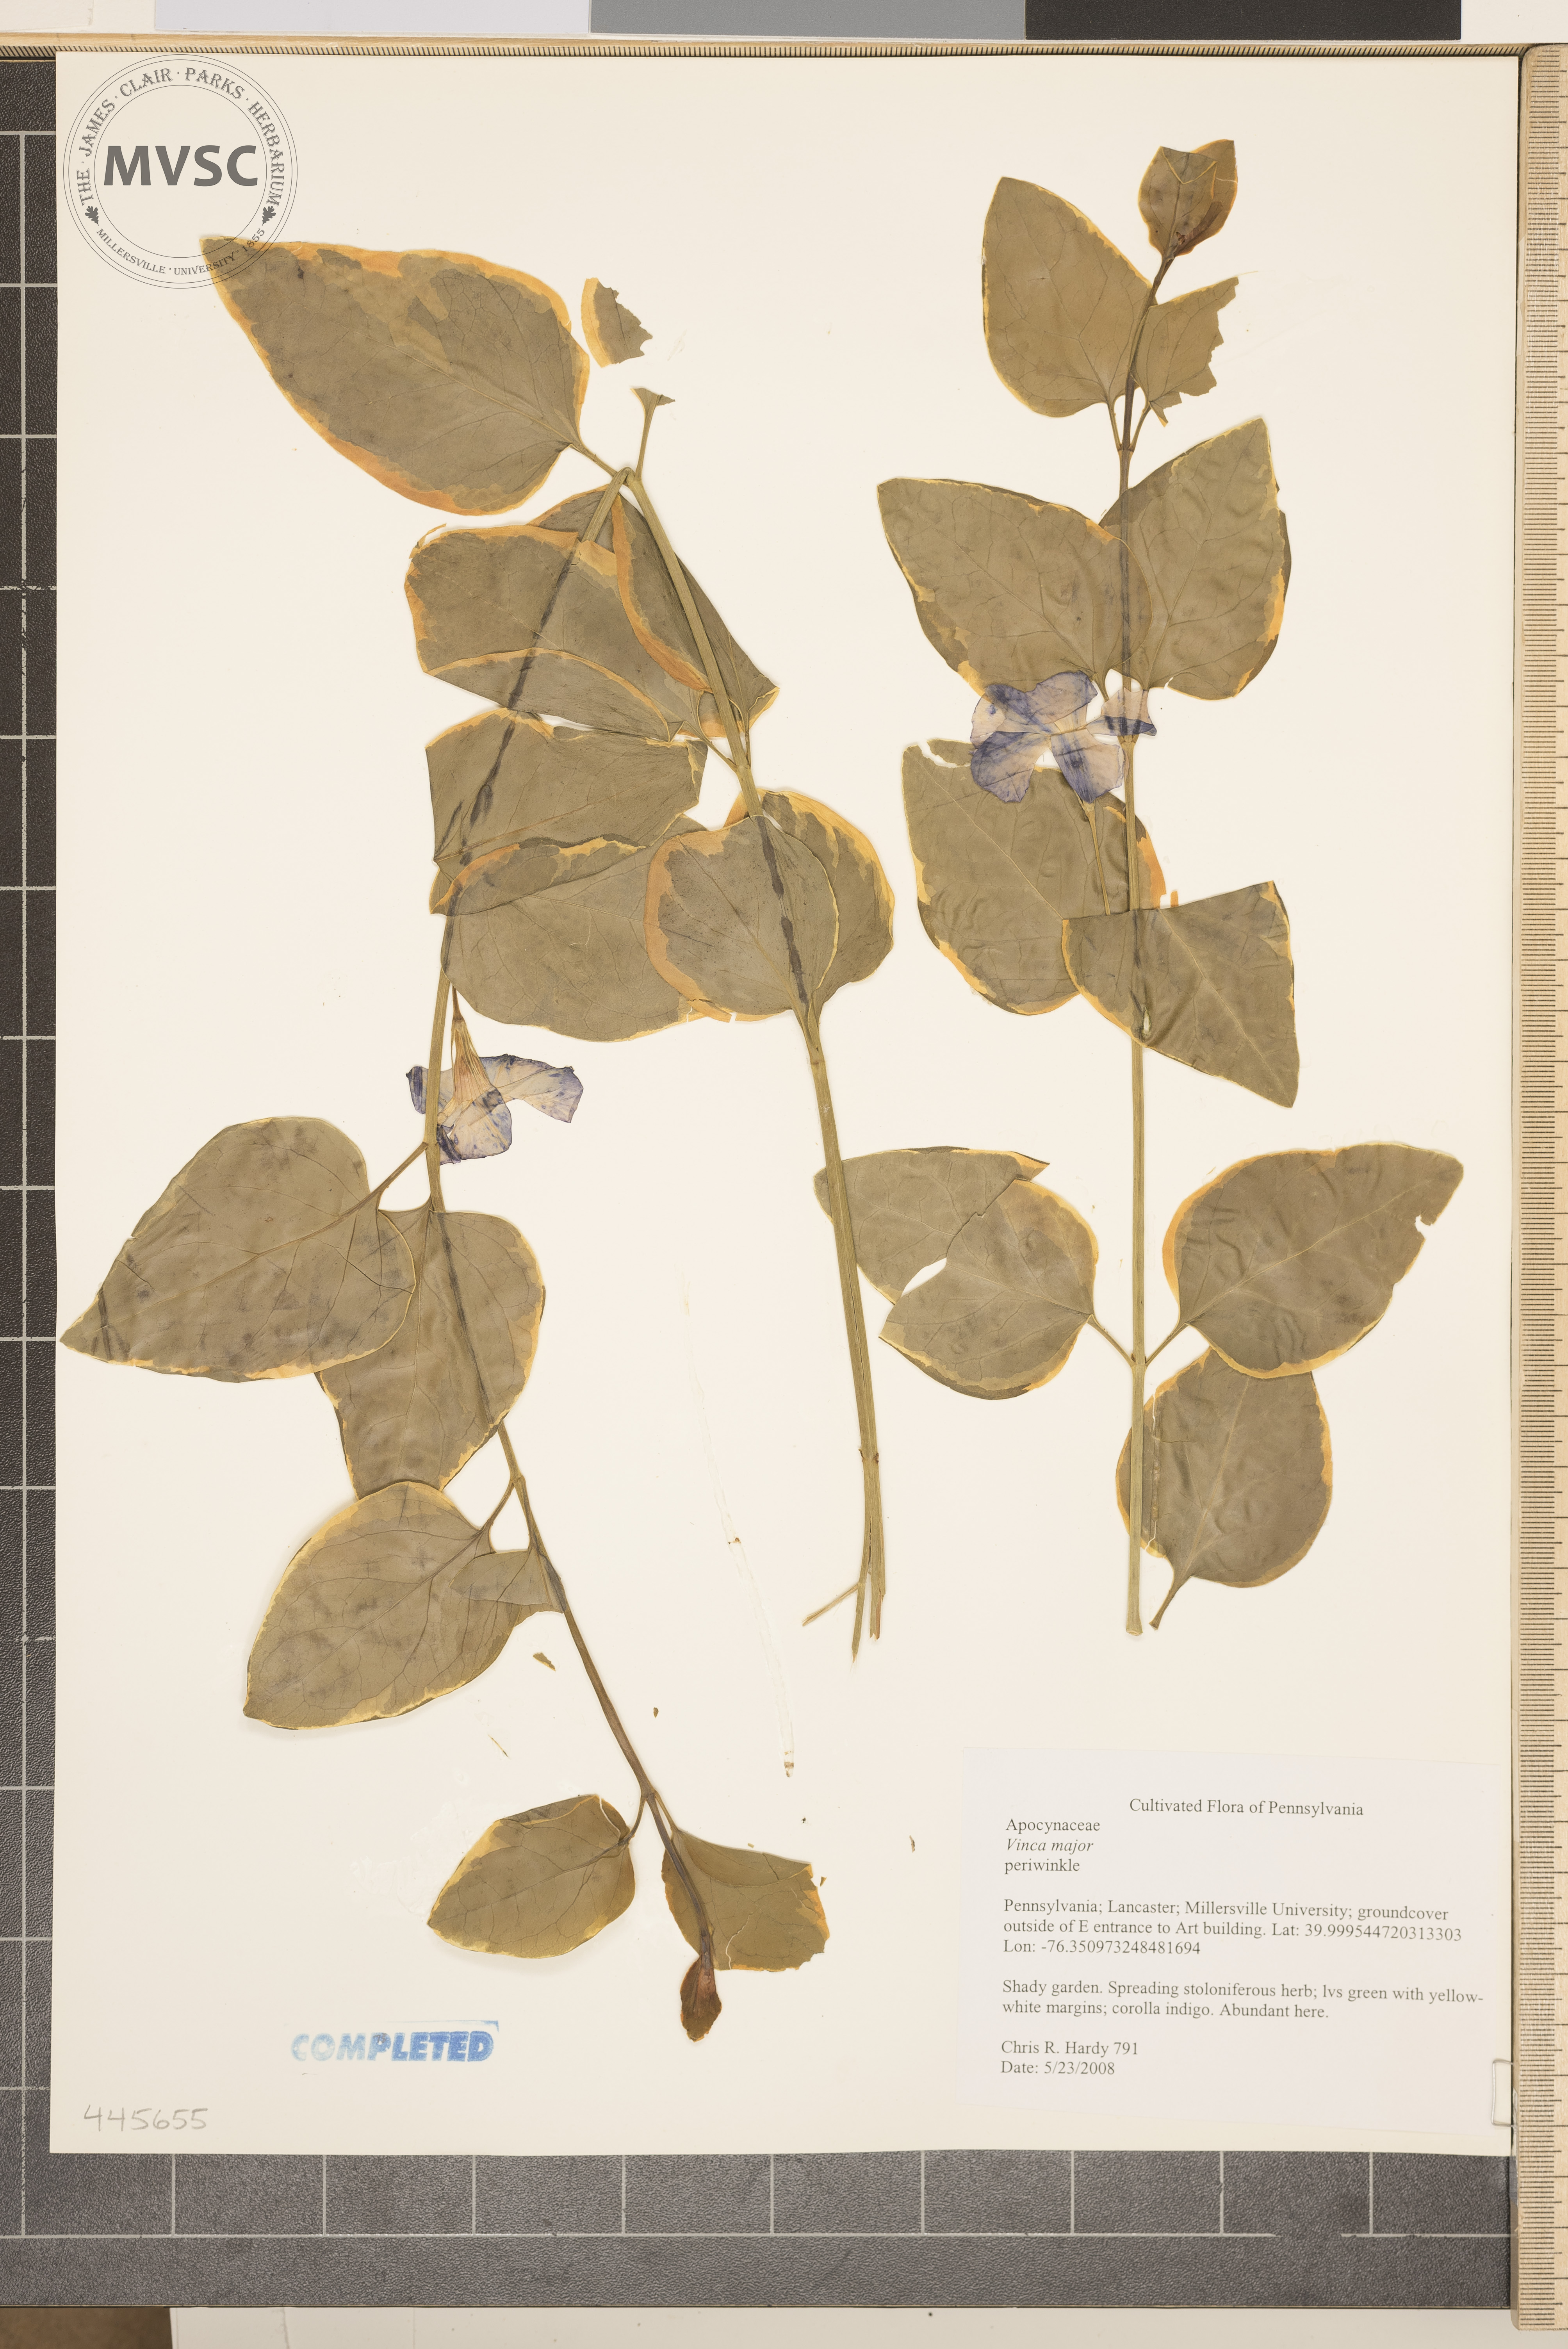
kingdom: Plantae
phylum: Tracheophyta
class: Magnoliopsida
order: Gentianales
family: Apocynaceae
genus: Vinca
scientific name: Vinca major
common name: periwinkle
